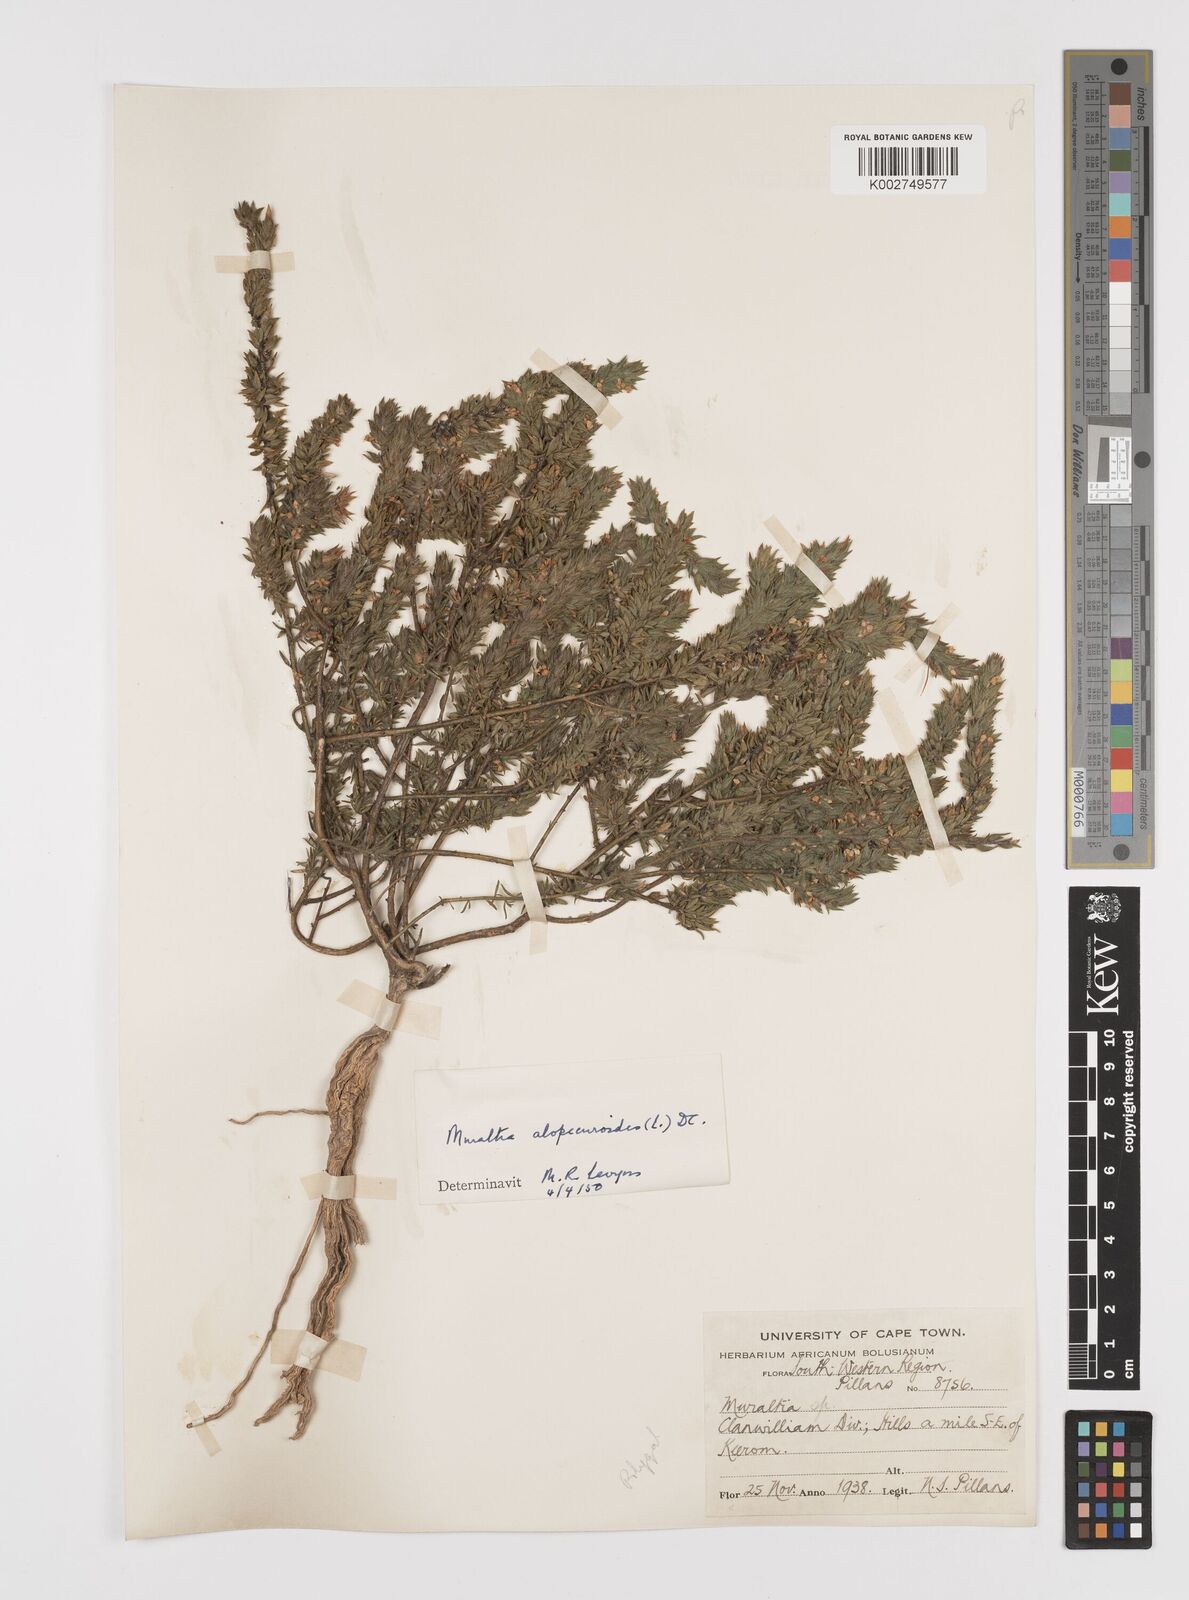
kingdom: Plantae
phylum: Tracheophyta
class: Magnoliopsida
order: Fabales
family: Polygalaceae
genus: Muraltia
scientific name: Muraltia alopecuroides
